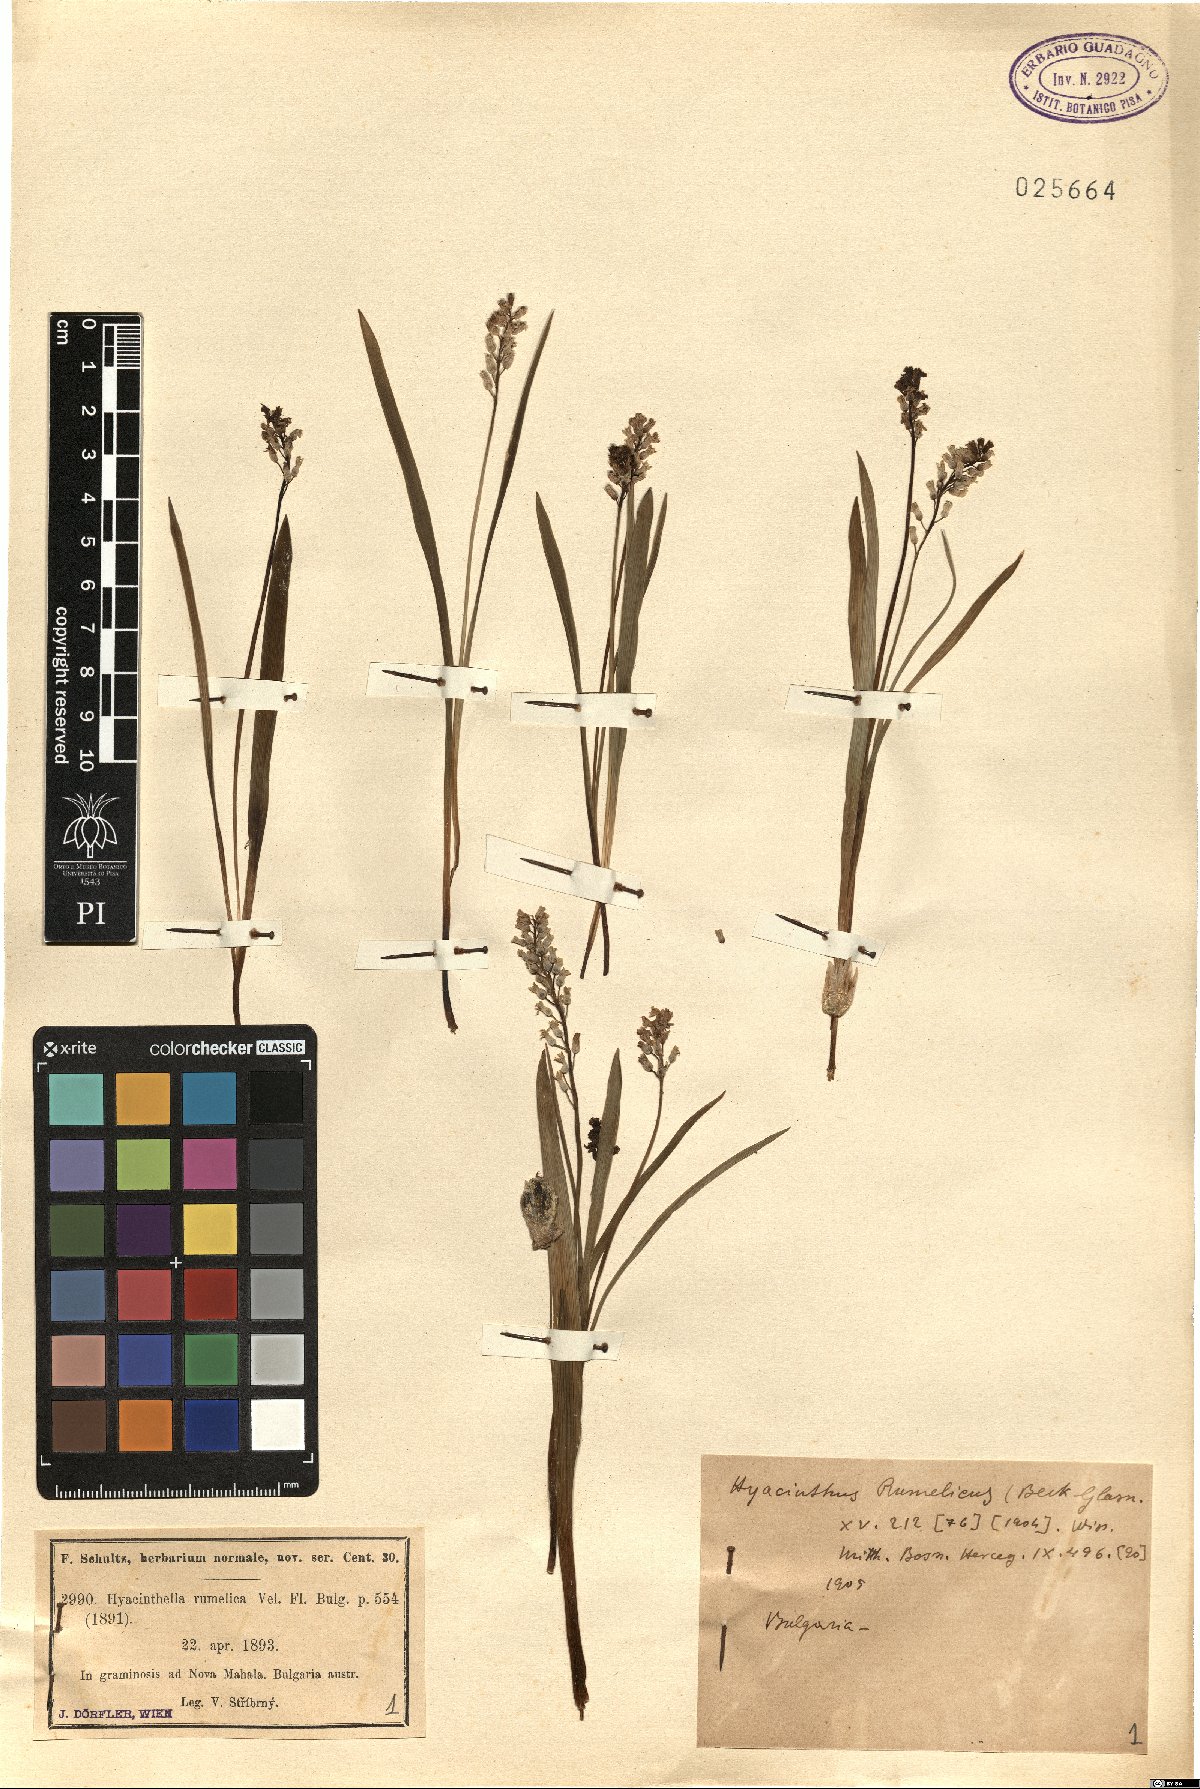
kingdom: Plantae
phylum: Tracheophyta
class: Liliopsida
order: Asparagales
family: Asparagaceae
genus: Hyacinthella
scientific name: Hyacinthella leucophaea
